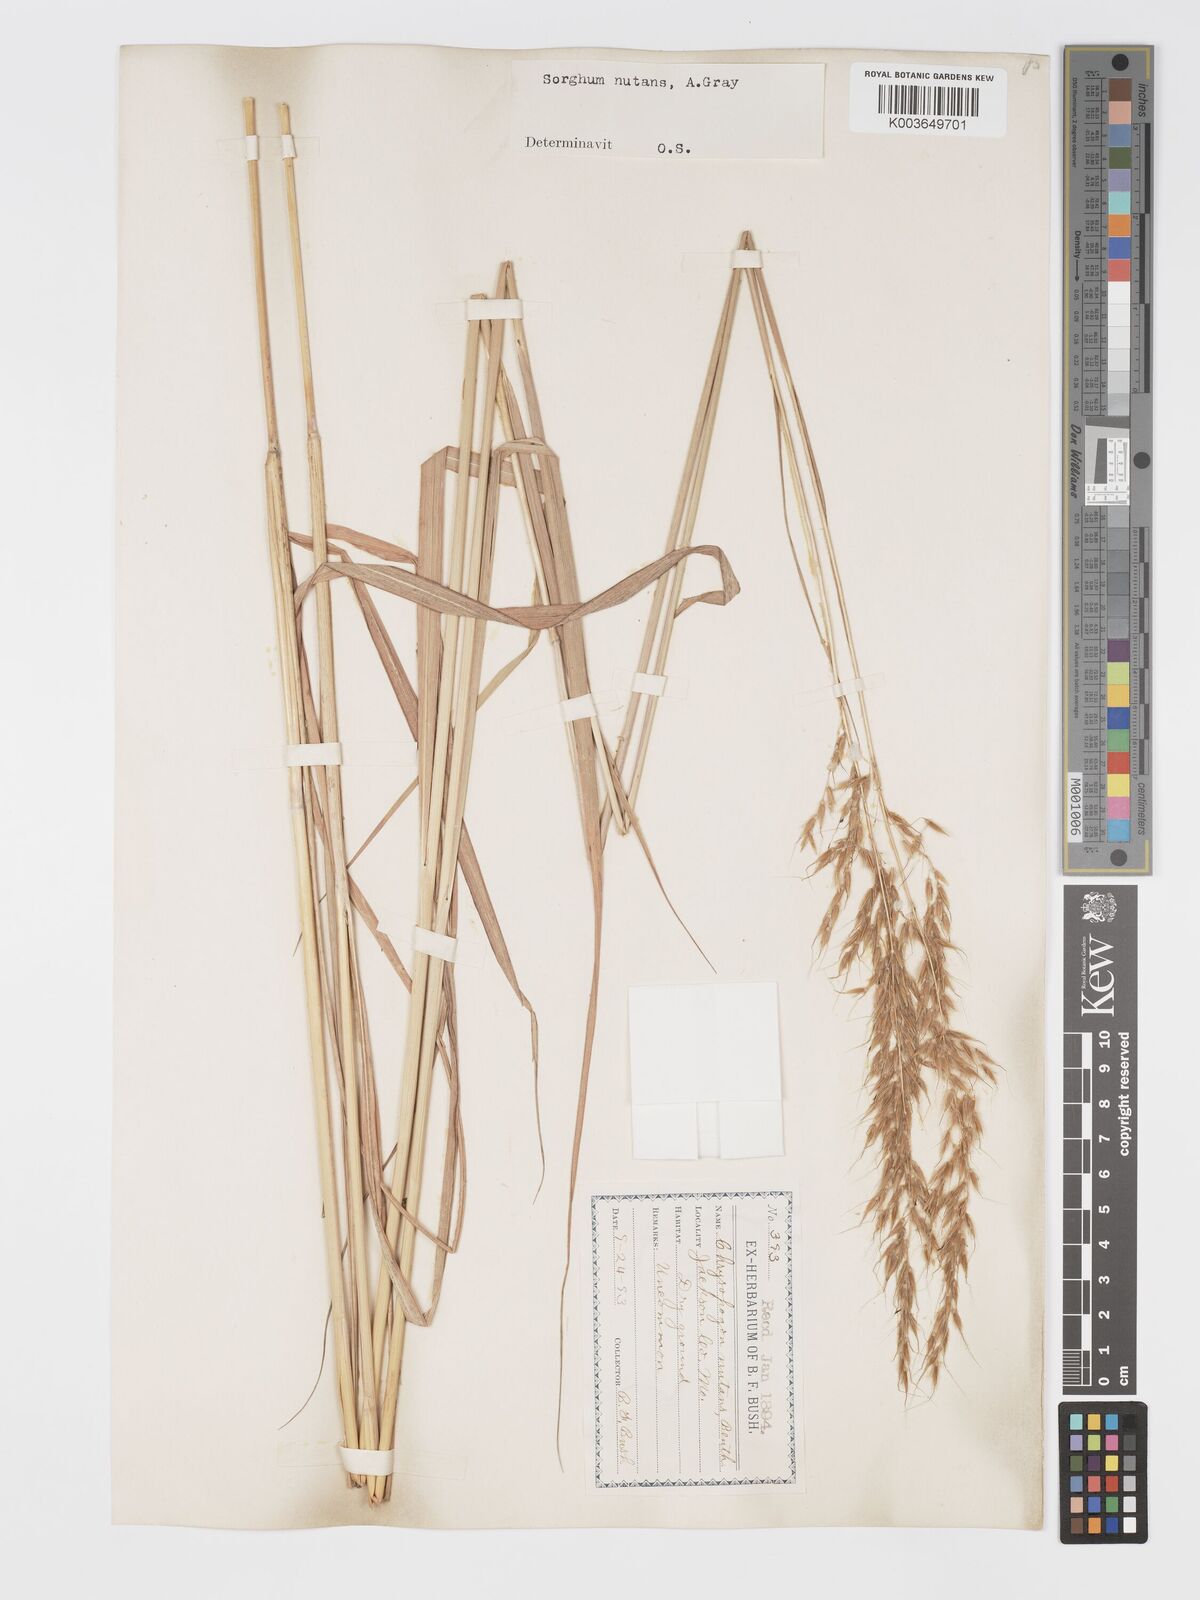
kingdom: Plantae
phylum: Tracheophyta
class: Liliopsida
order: Poales
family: Poaceae
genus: Sorghastrum
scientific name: Sorghastrum nutans
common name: Indian grass
